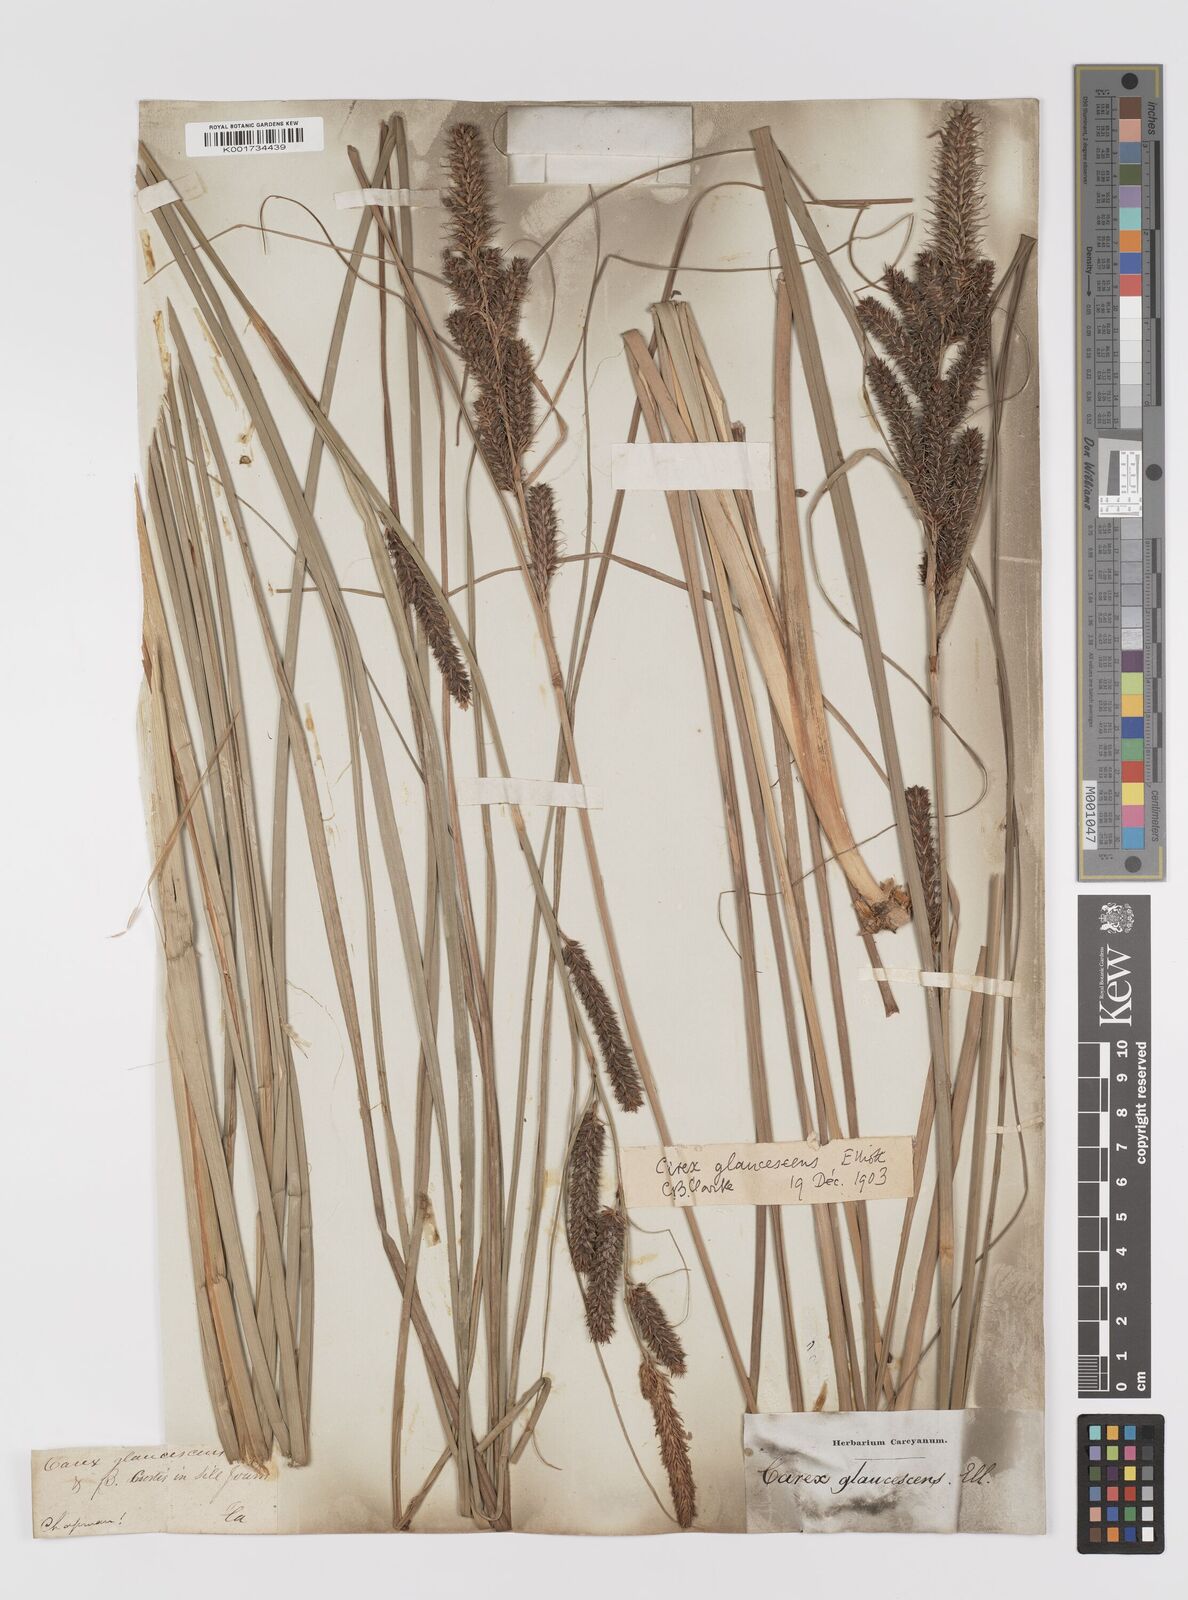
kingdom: Plantae
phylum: Tracheophyta
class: Liliopsida
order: Poales
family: Cyperaceae
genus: Carex
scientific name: Carex glaucescens
